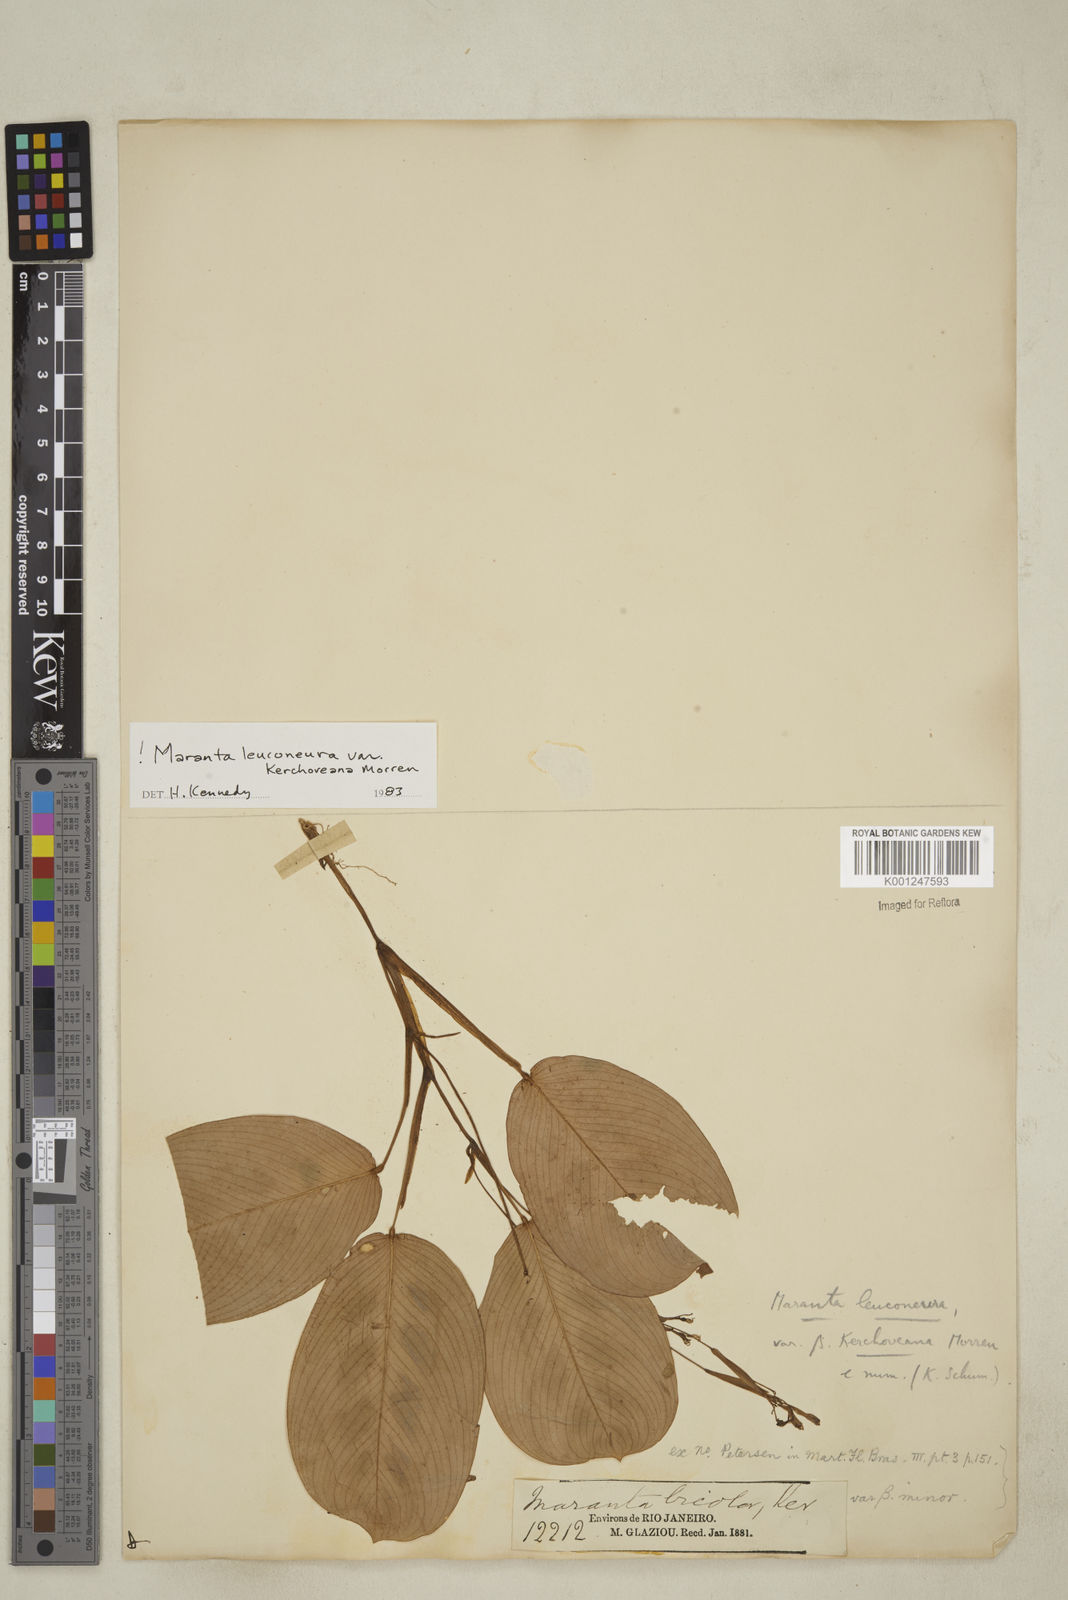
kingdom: Plantae
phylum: Tracheophyta
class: Liliopsida
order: Zingiberales
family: Marantaceae
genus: Maranta
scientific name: Maranta leuconeura
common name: Ten-commandments
